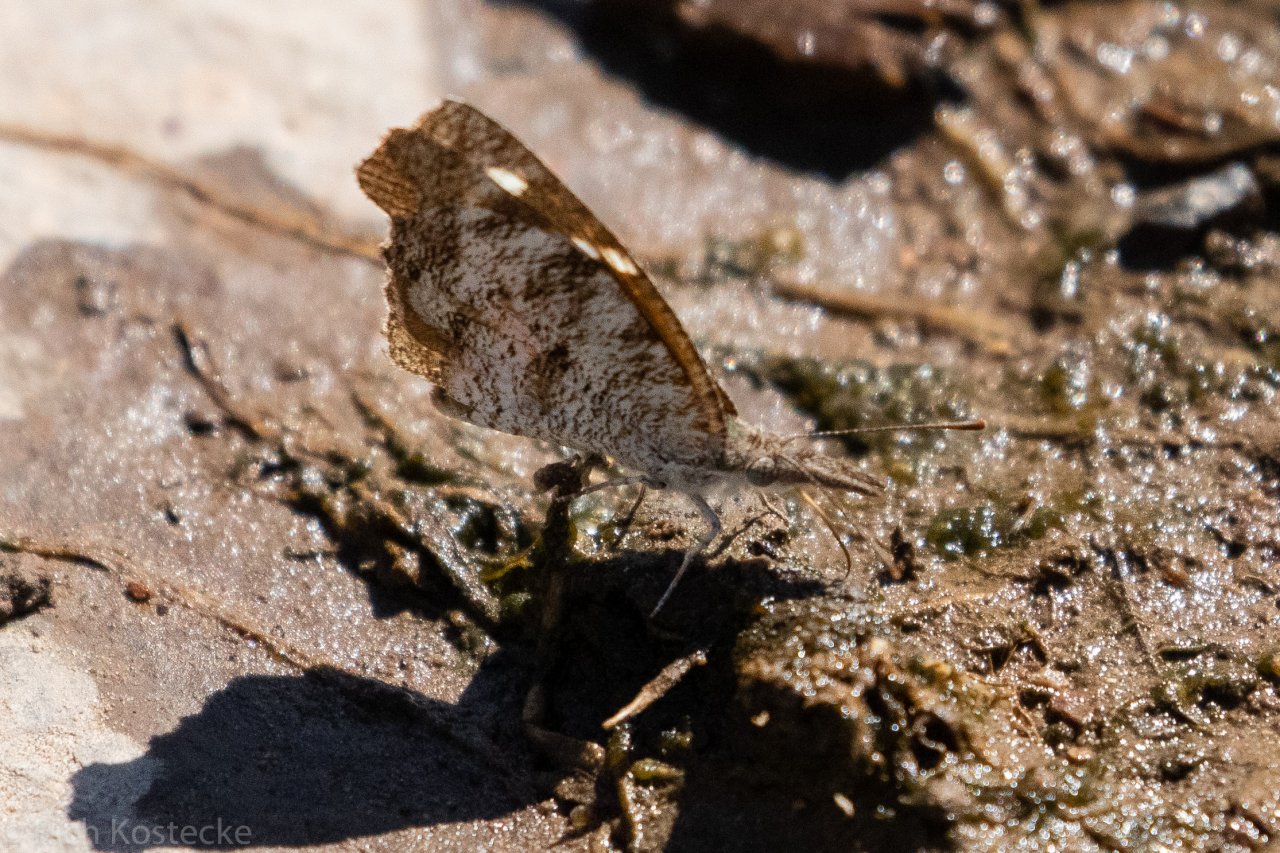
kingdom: Animalia
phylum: Arthropoda
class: Insecta
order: Lepidoptera
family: Nymphalidae
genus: Libytheana
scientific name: Libytheana carinenta
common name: American Snout
